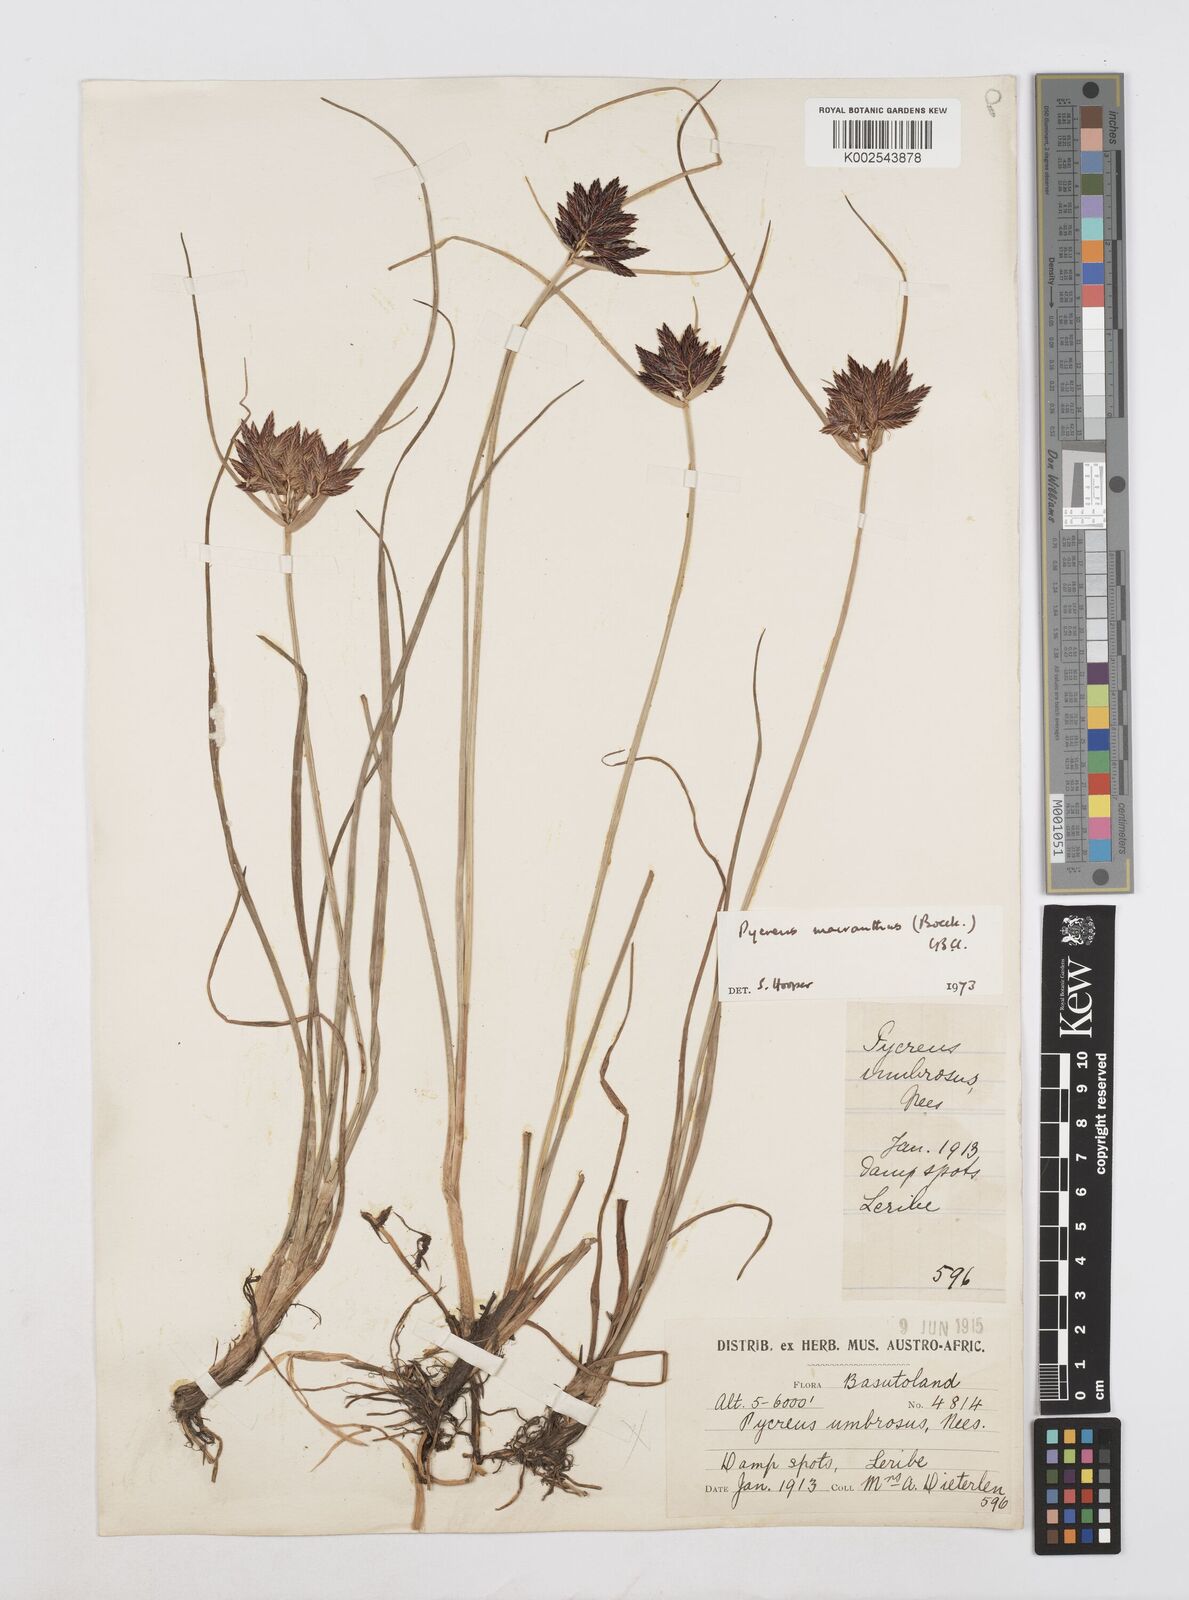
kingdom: Plantae
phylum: Tracheophyta
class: Liliopsida
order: Poales
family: Cyperaceae
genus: Cyperus
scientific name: Cyperus nigricans
